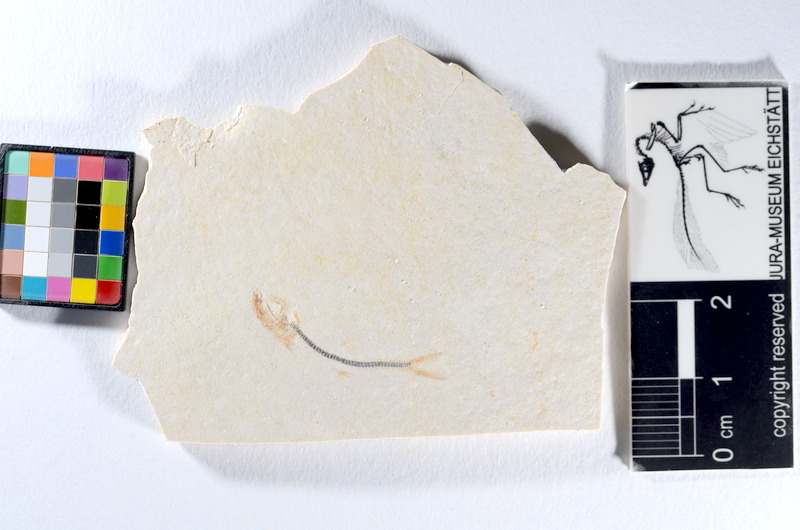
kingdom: Animalia
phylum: Chordata
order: Salmoniformes
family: Orthogonikleithridae
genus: Orthogonikleithrus
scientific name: Orthogonikleithrus hoelli
